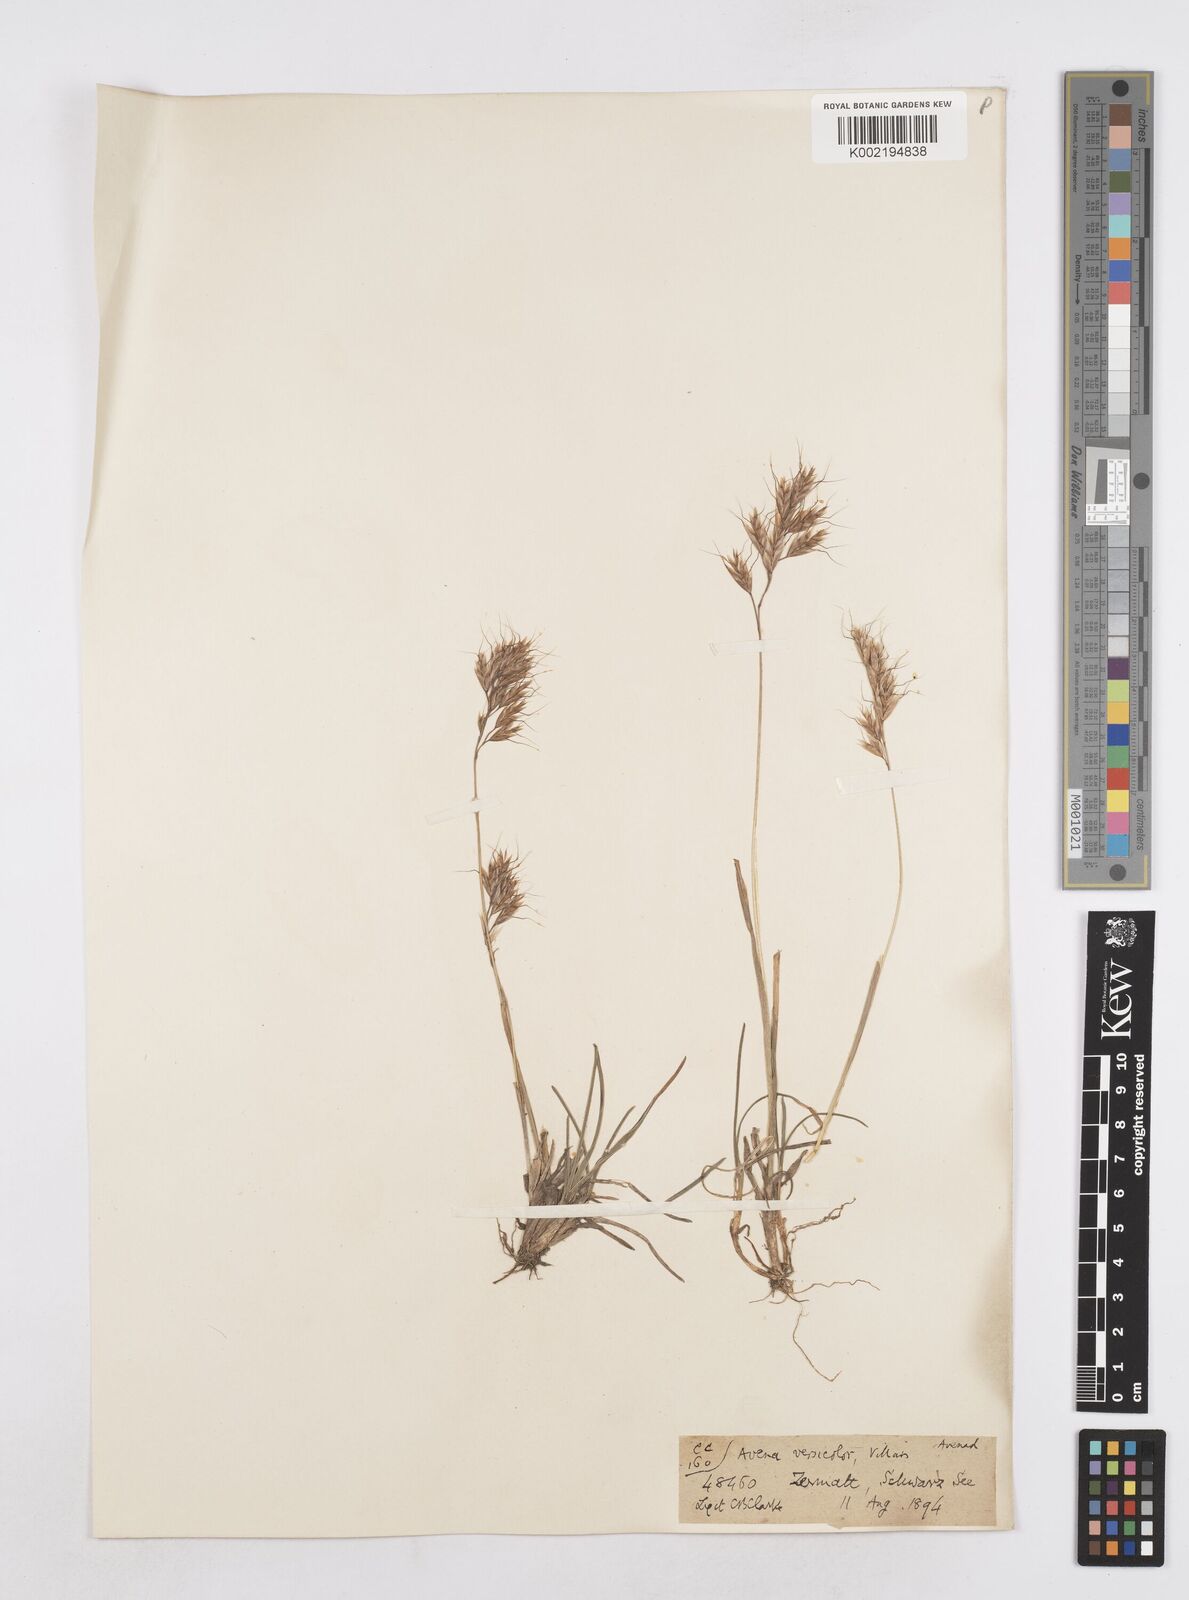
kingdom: Plantae
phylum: Tracheophyta
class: Liliopsida
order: Poales
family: Poaceae
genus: Helictotrichon
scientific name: Helictotrichon
